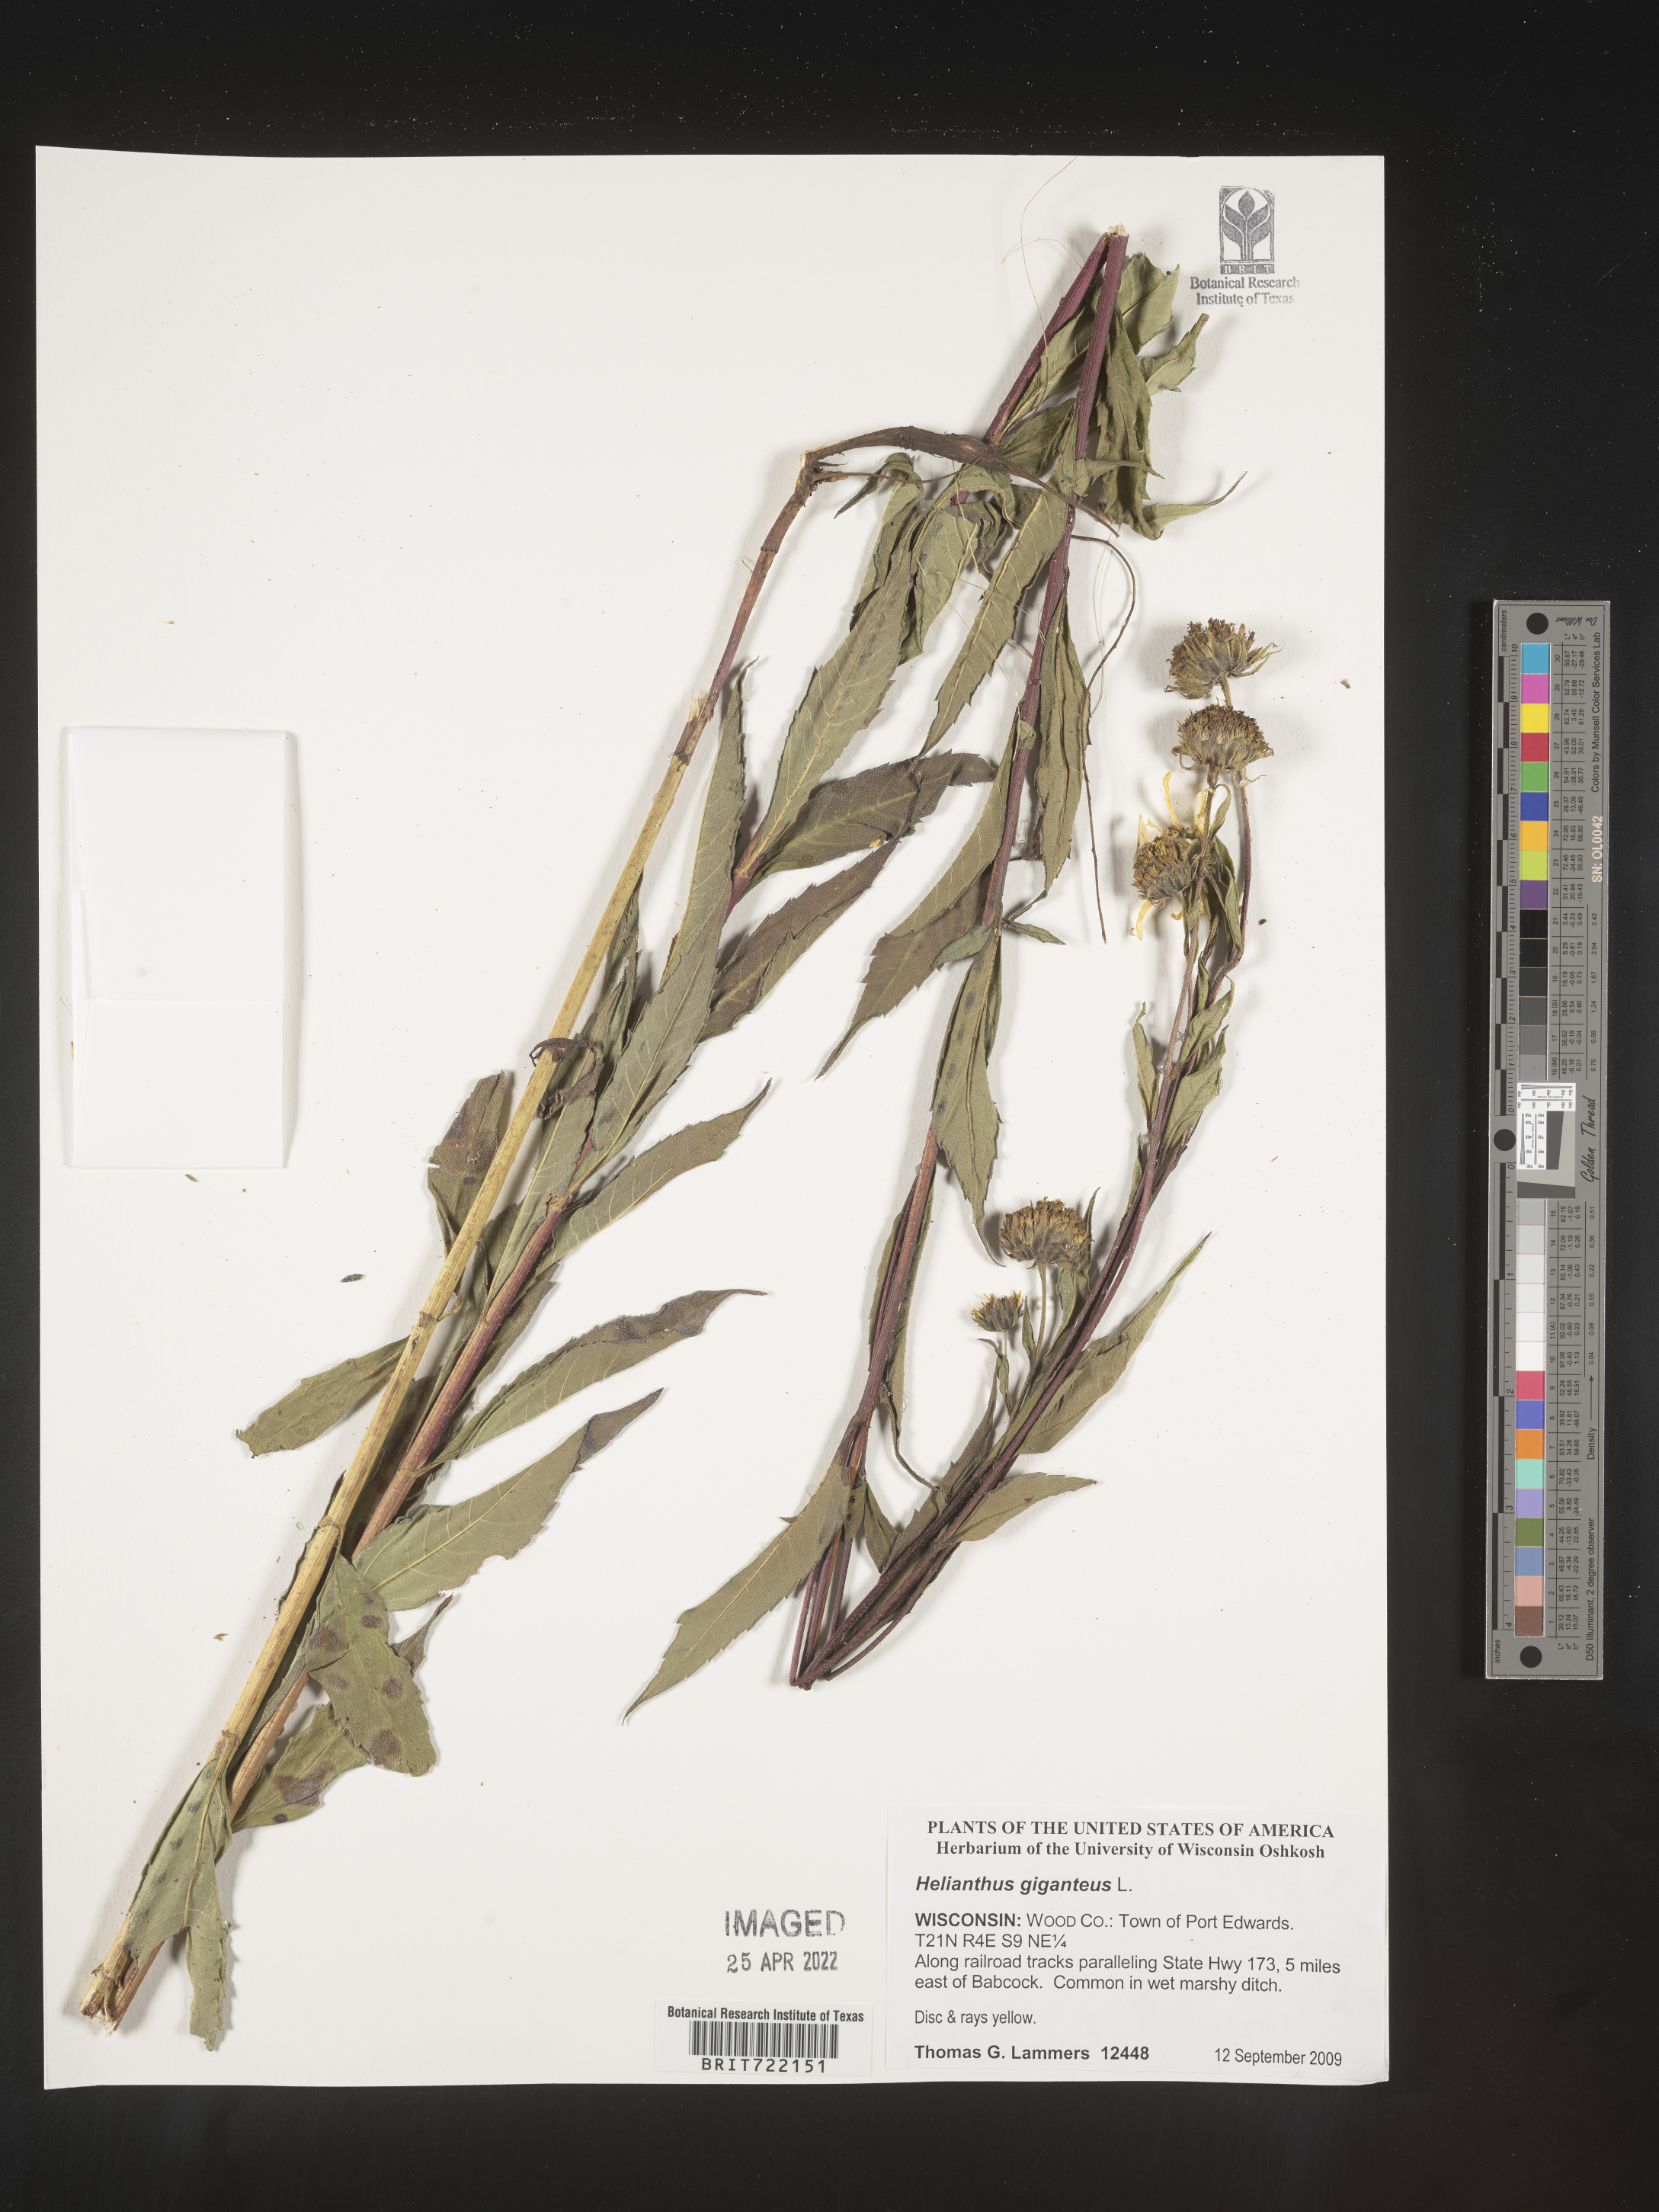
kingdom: Plantae
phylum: Tracheophyta
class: Magnoliopsida
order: Asterales
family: Asteraceae
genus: Helianthus
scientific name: Helianthus giganteus
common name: Giant sunflower
